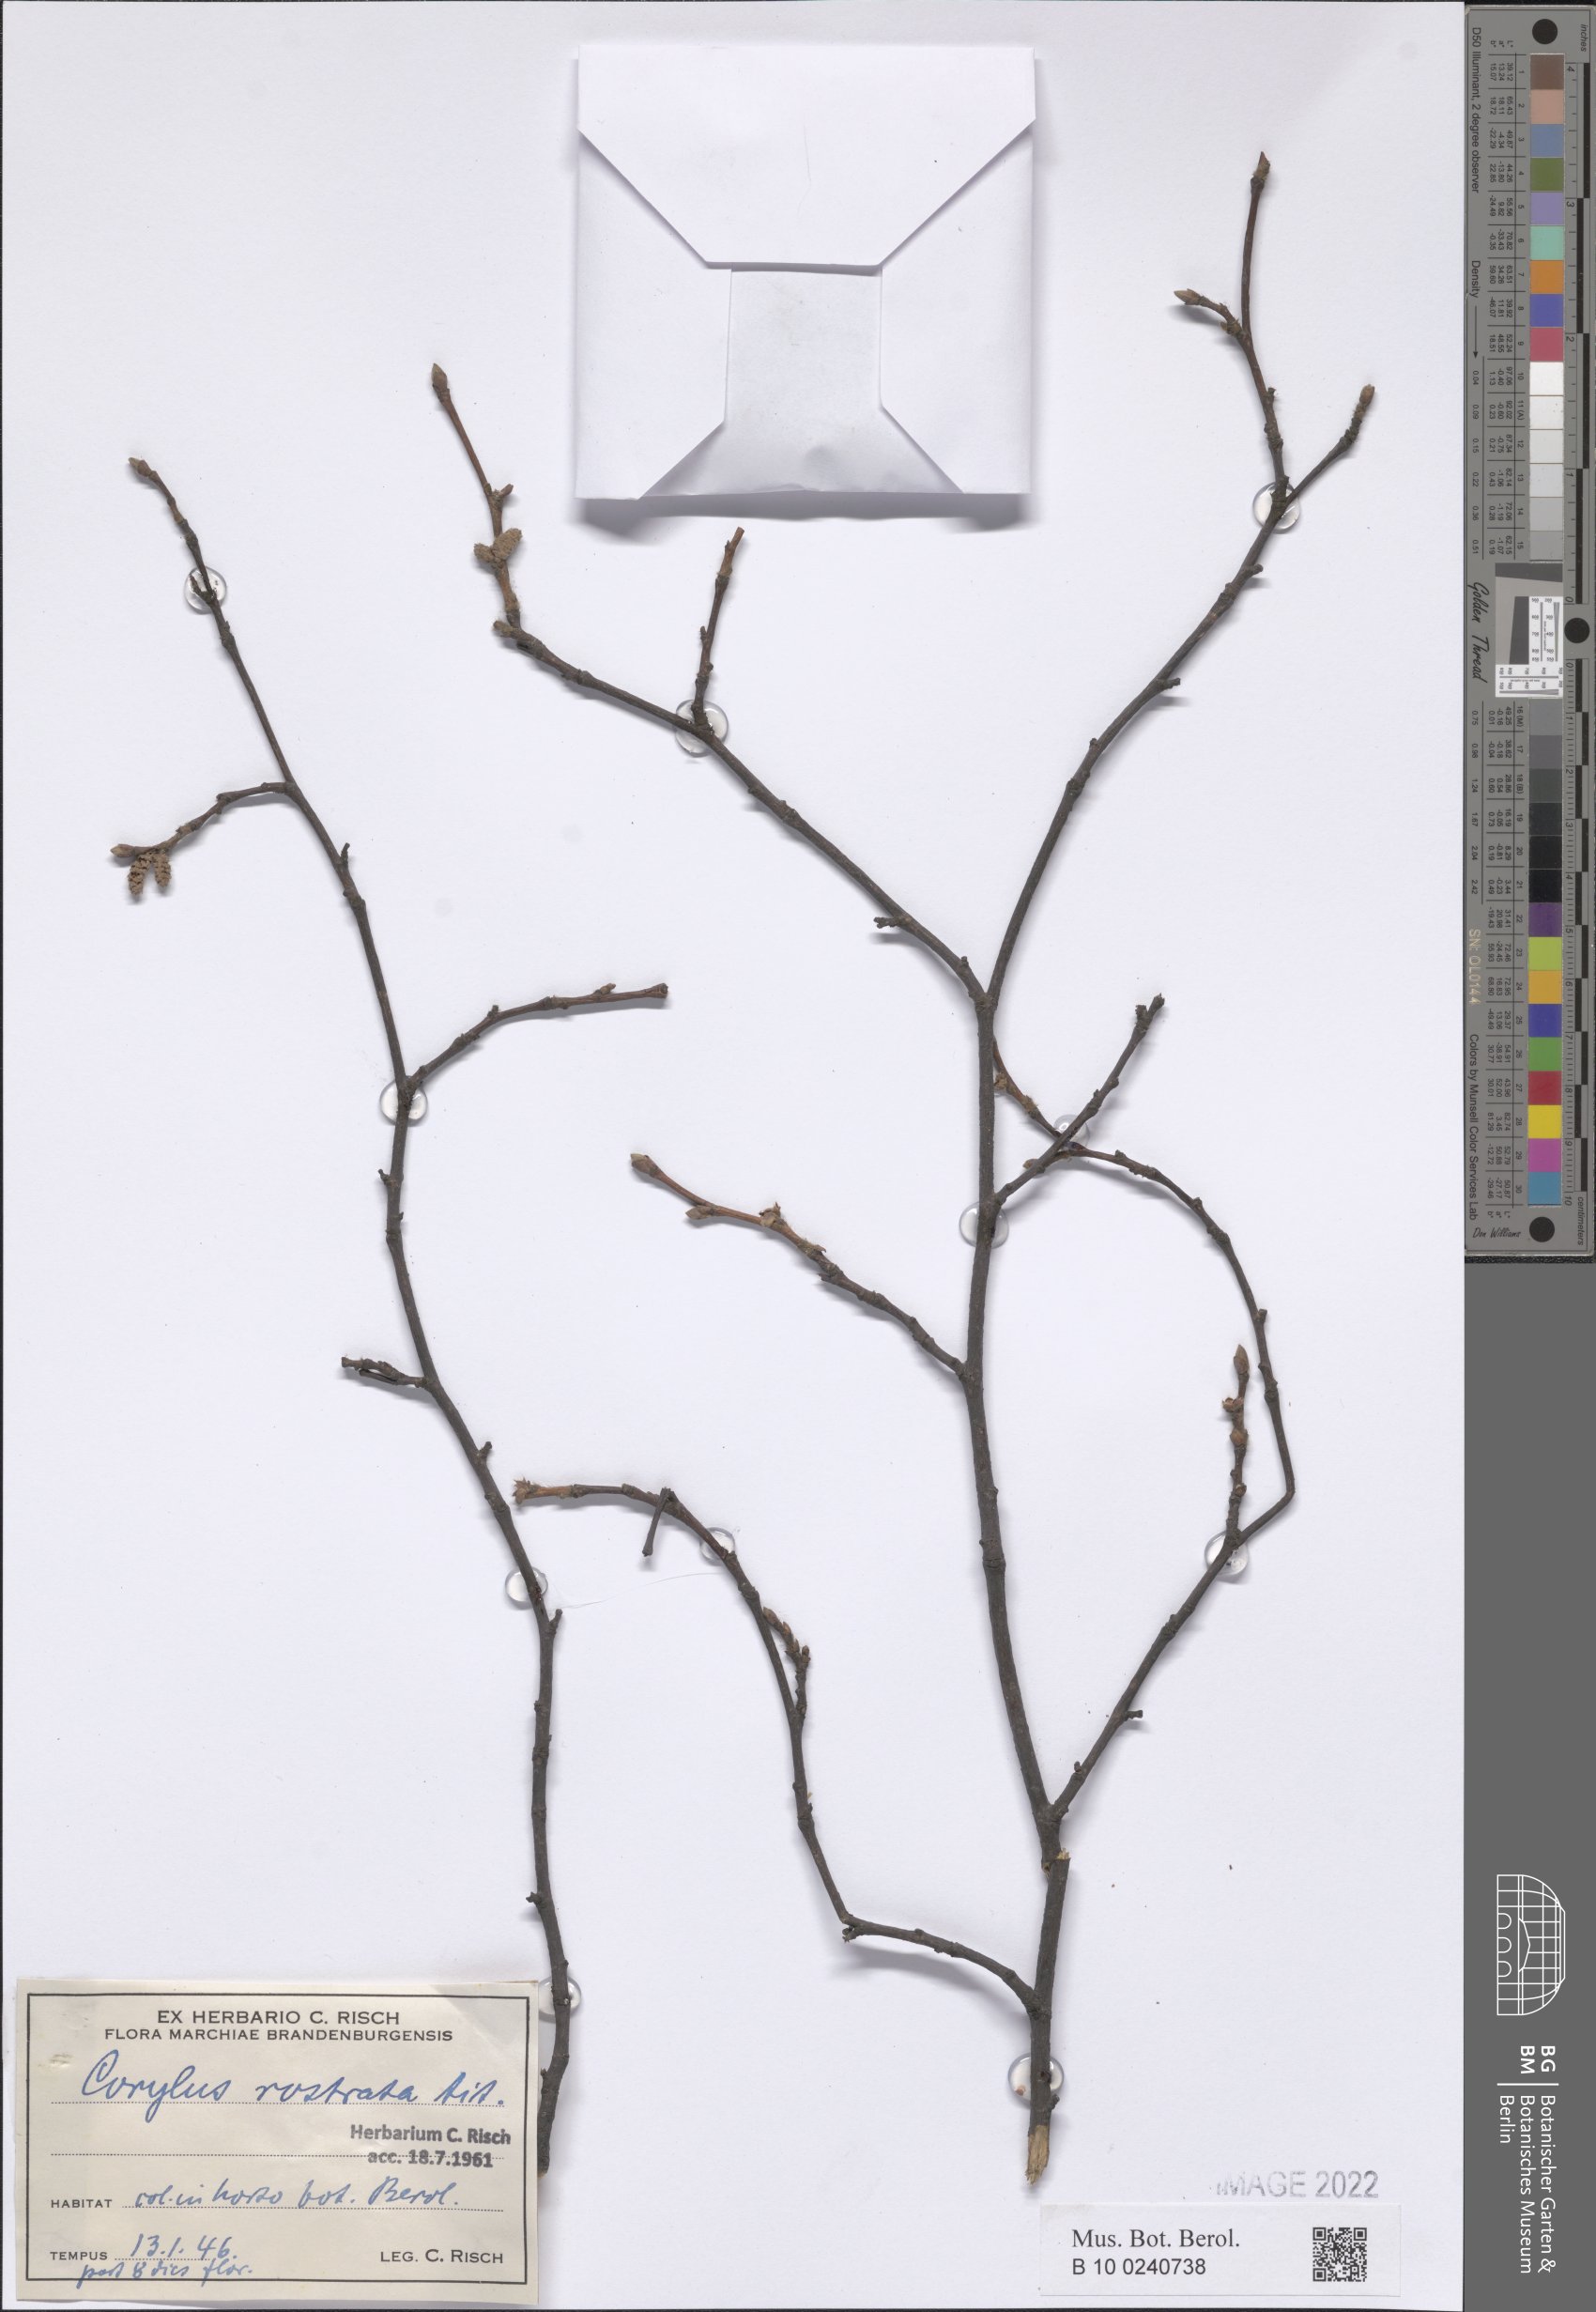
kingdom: Plantae
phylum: Tracheophyta
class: Liliopsida
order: Asparagales
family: Asparagaceae
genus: Ornithogalum
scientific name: Ornithogalum nutans
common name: Drooping star-of-bethlehem
